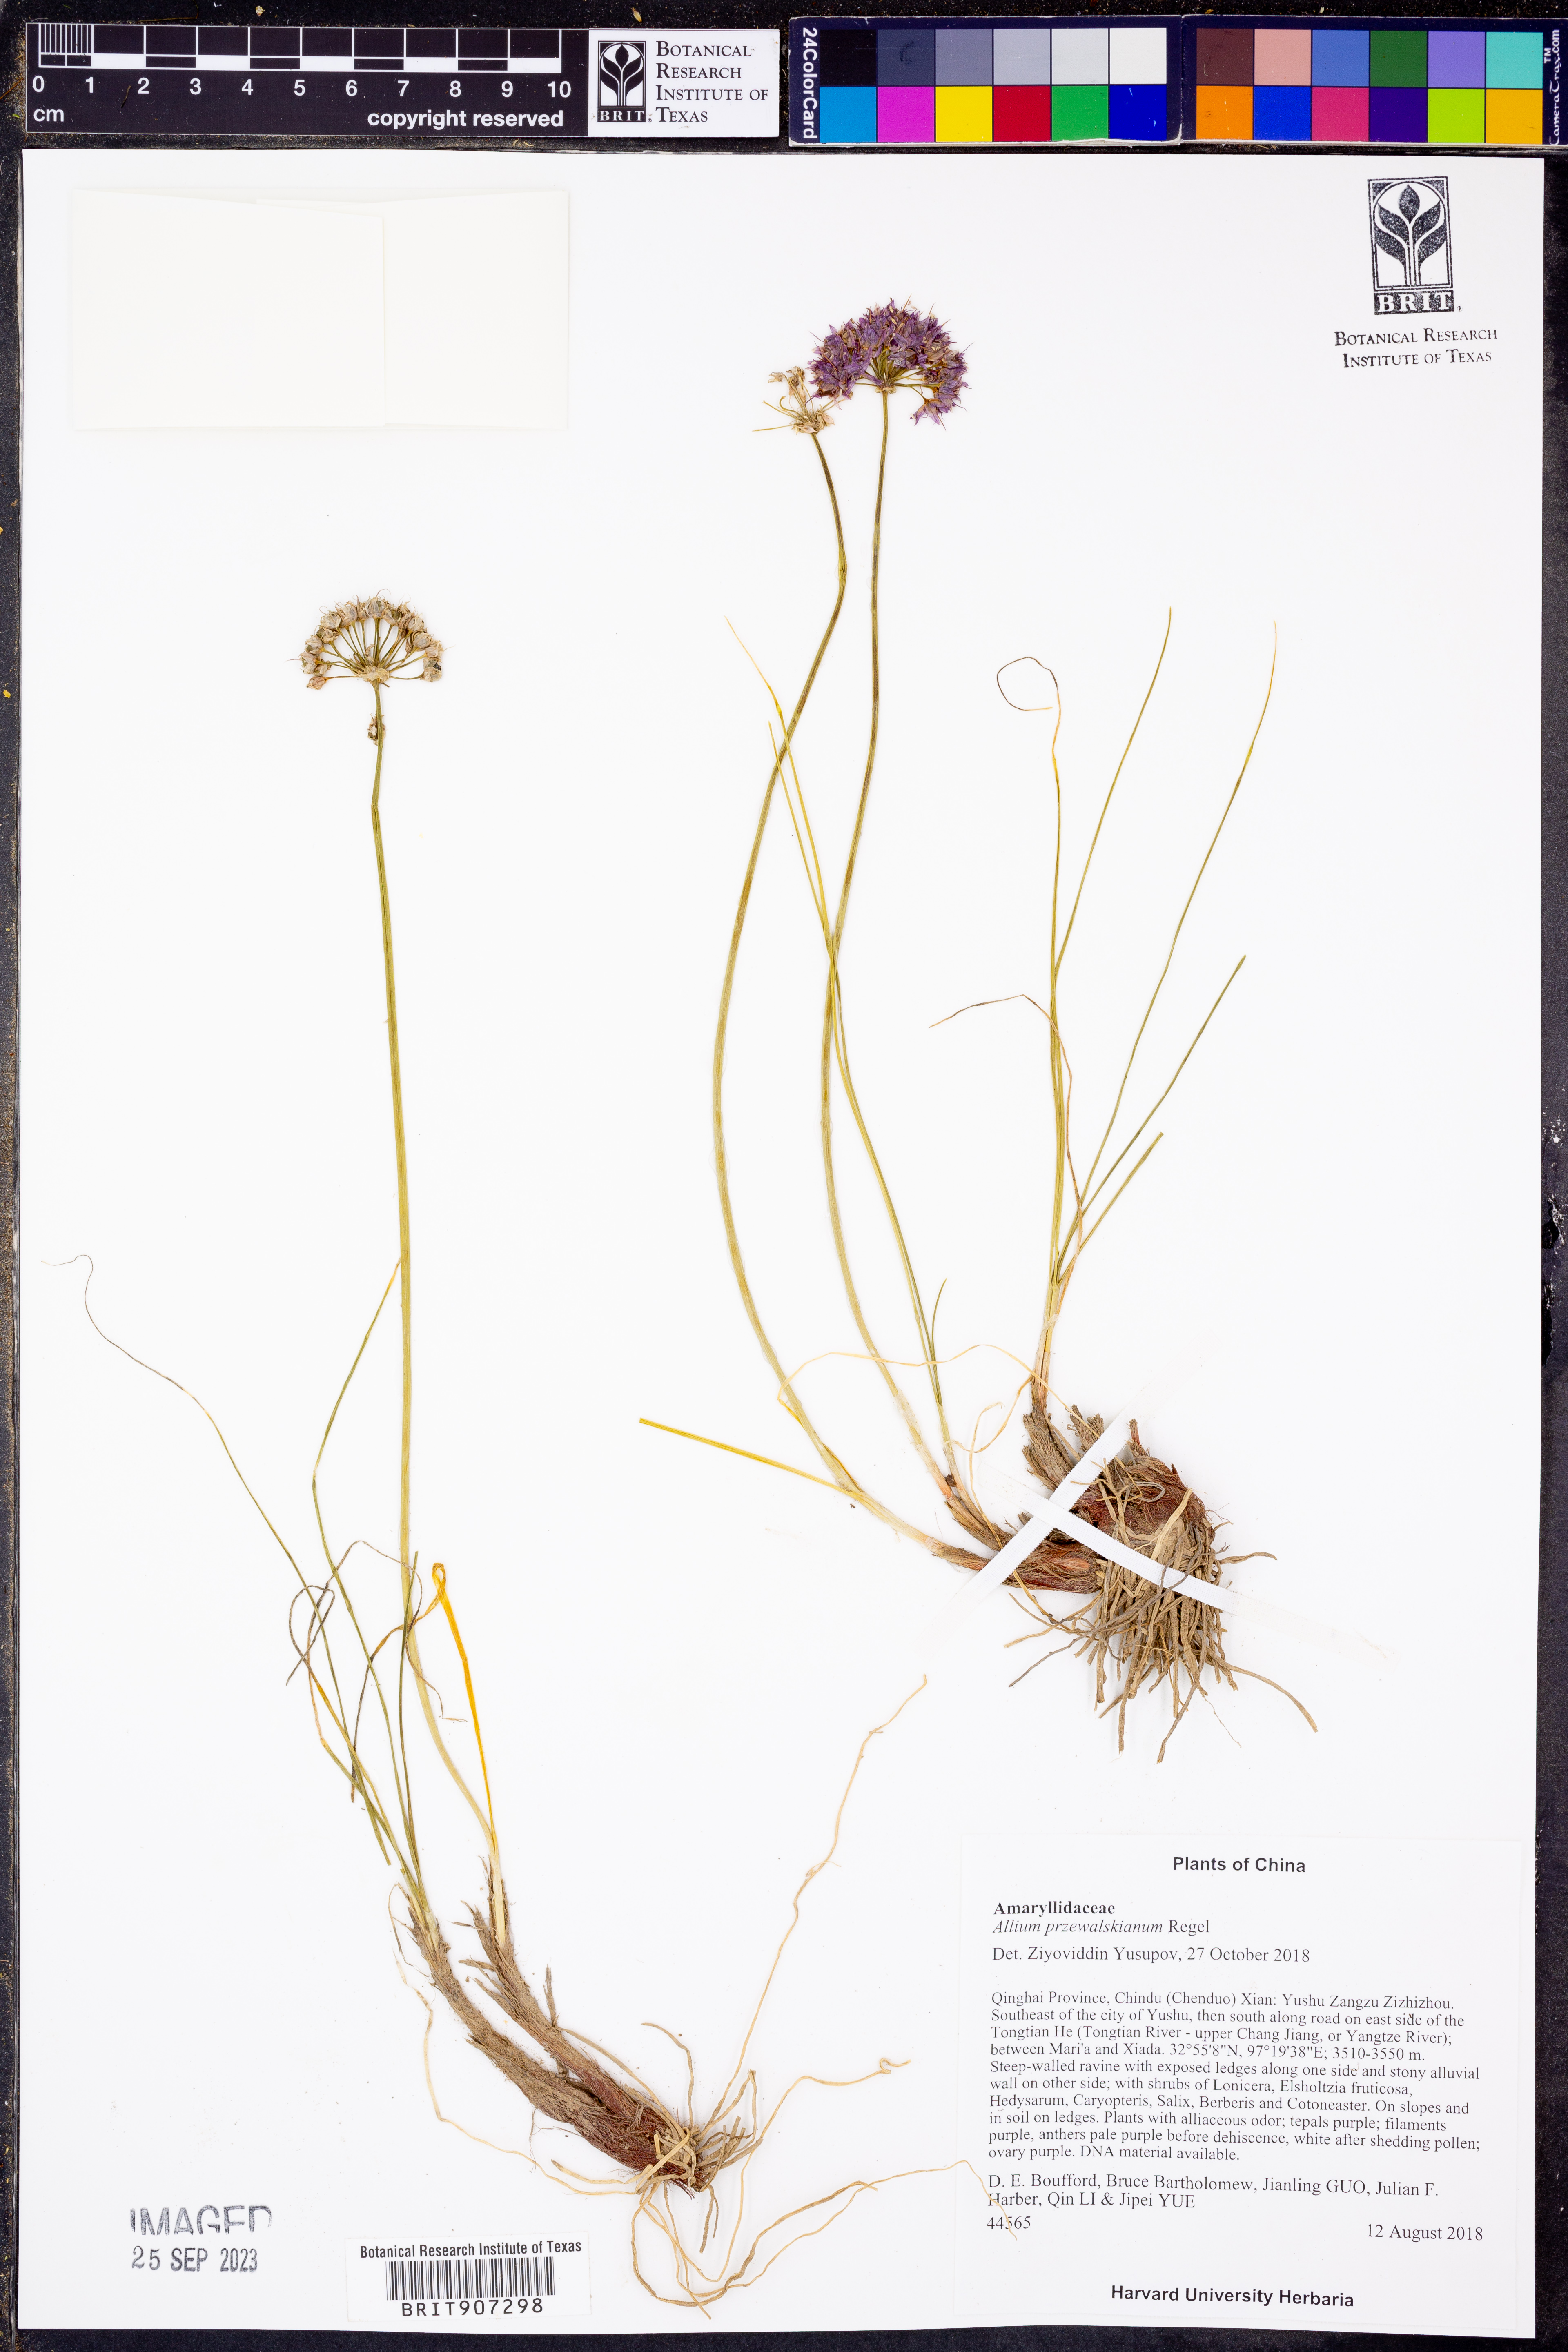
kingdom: Plantae
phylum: Tracheophyta
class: Liliopsida
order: Asparagales
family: Amaryllidaceae
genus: Allium
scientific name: Allium przewalskianum
